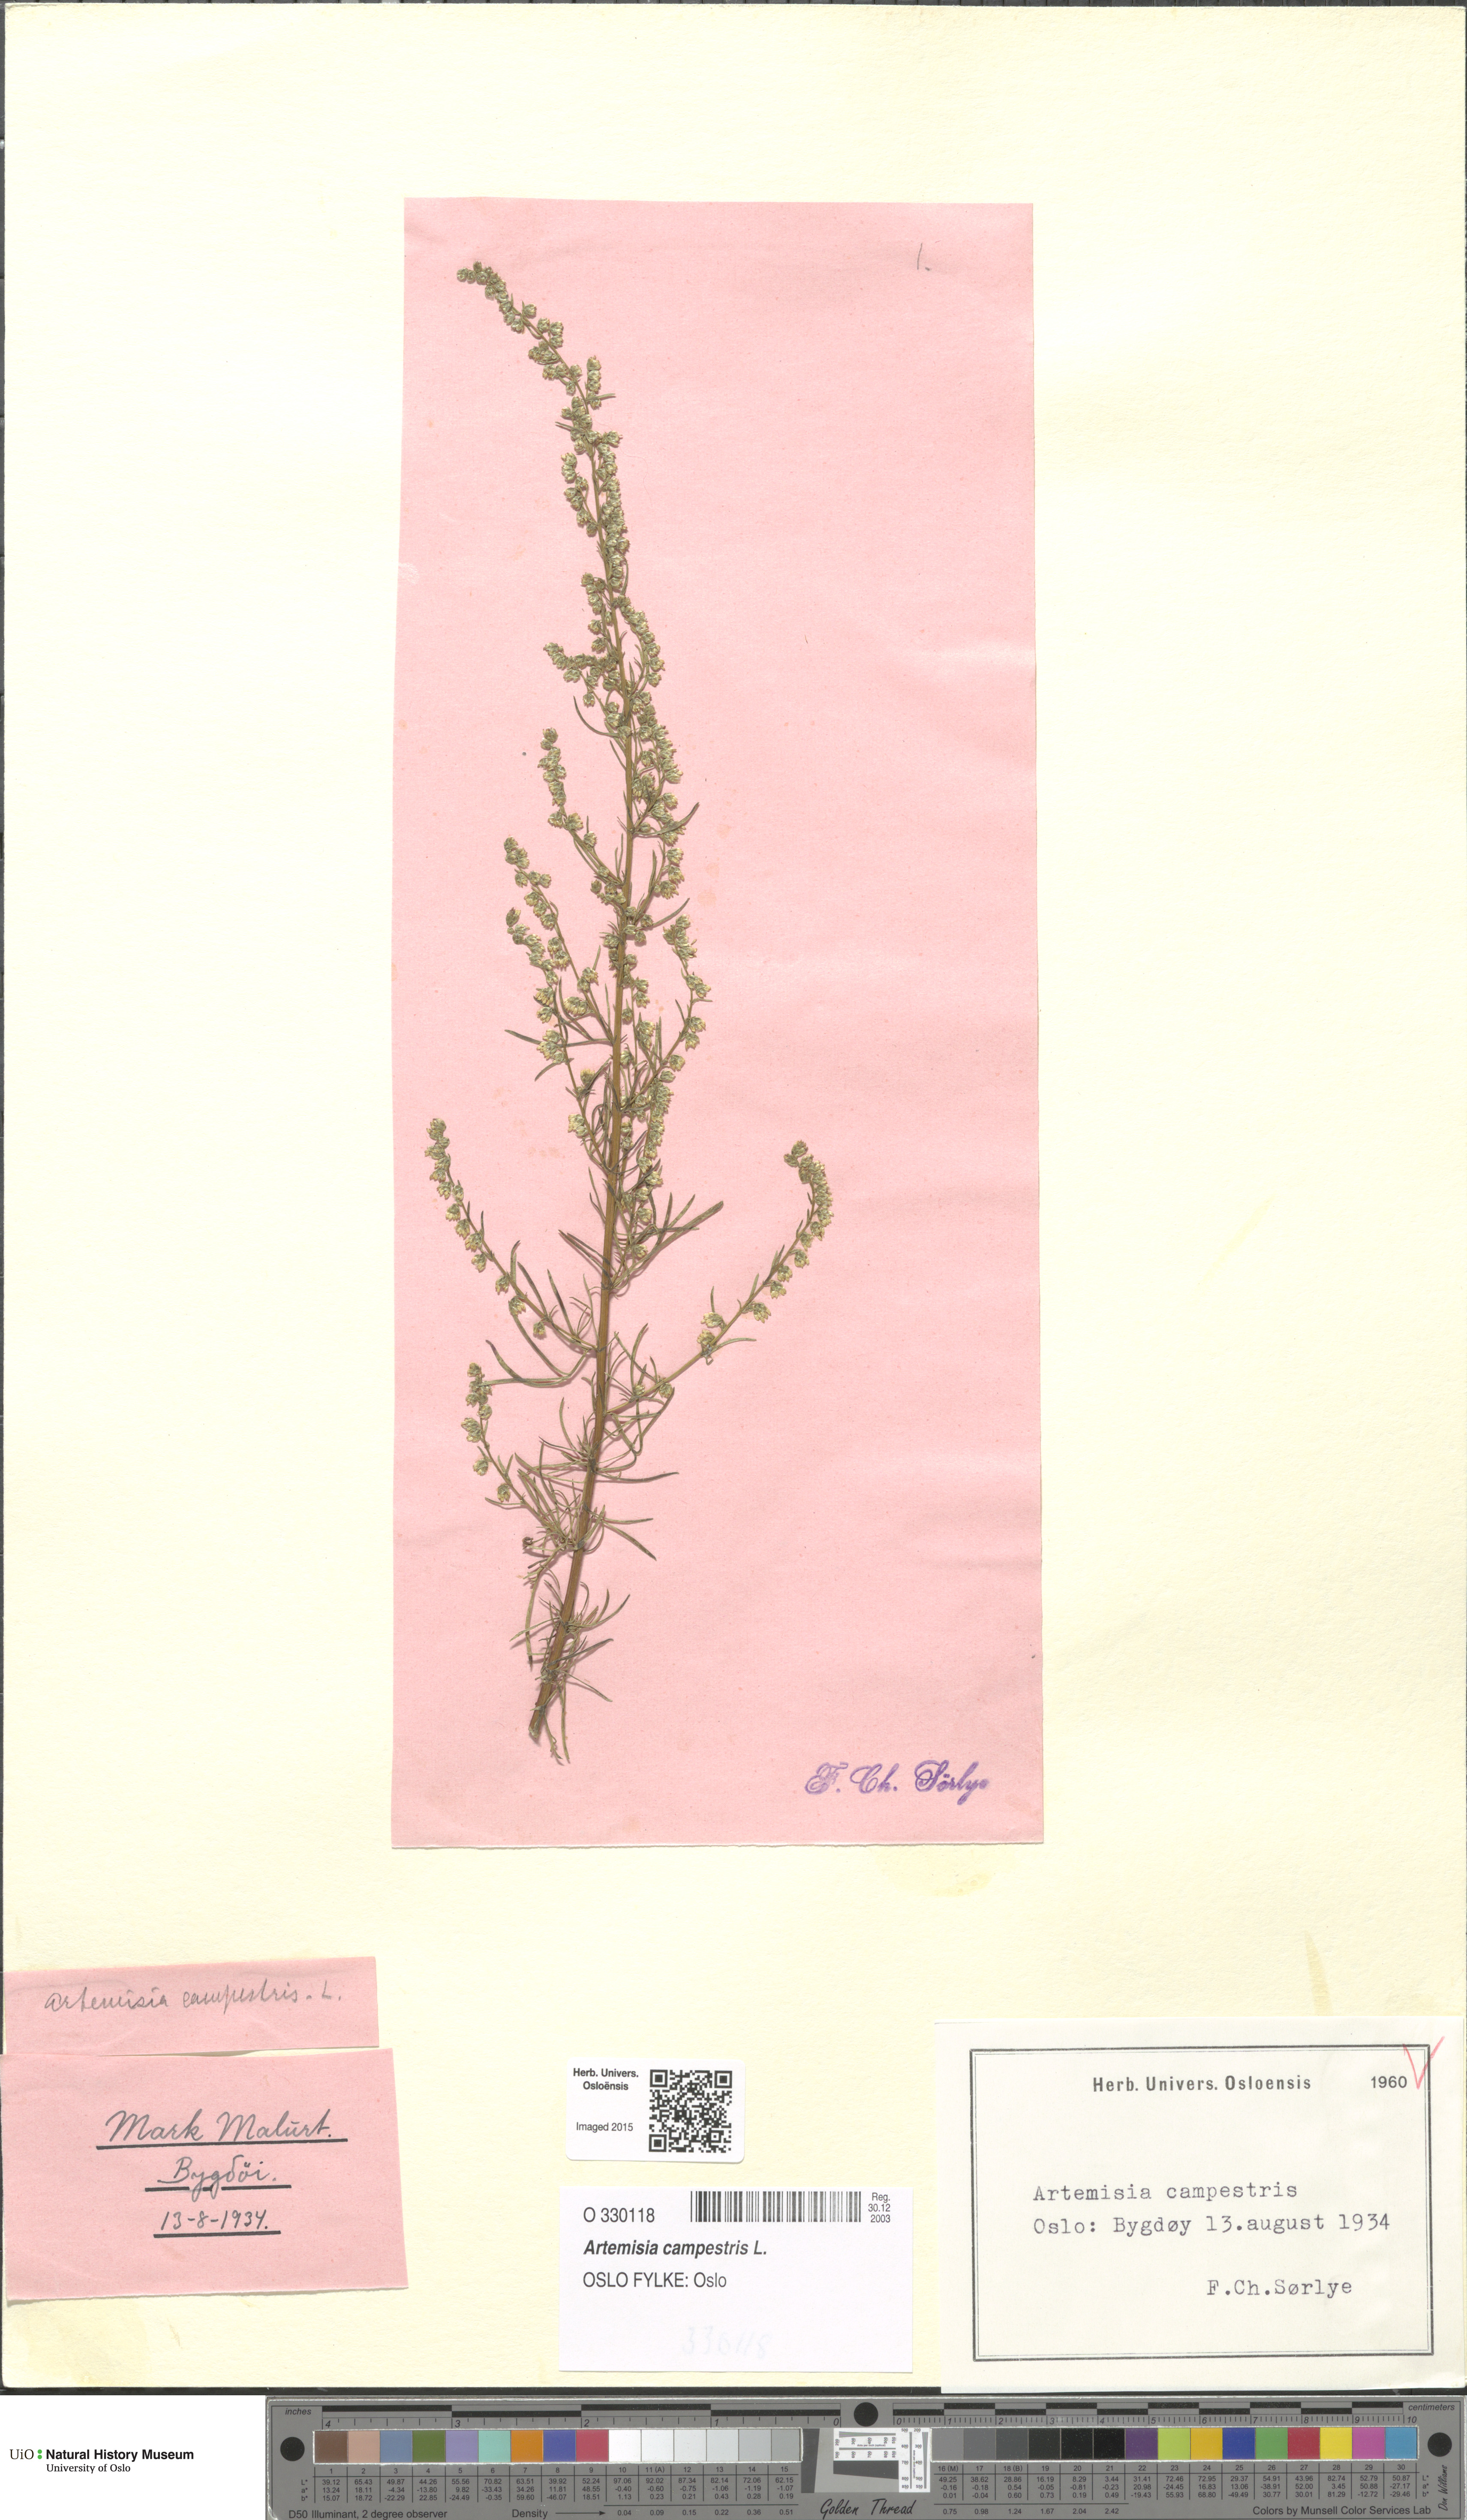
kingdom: Plantae
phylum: Tracheophyta
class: Magnoliopsida
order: Asterales
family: Asteraceae
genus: Artemisia
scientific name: Artemisia campestris
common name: Field wormwood
